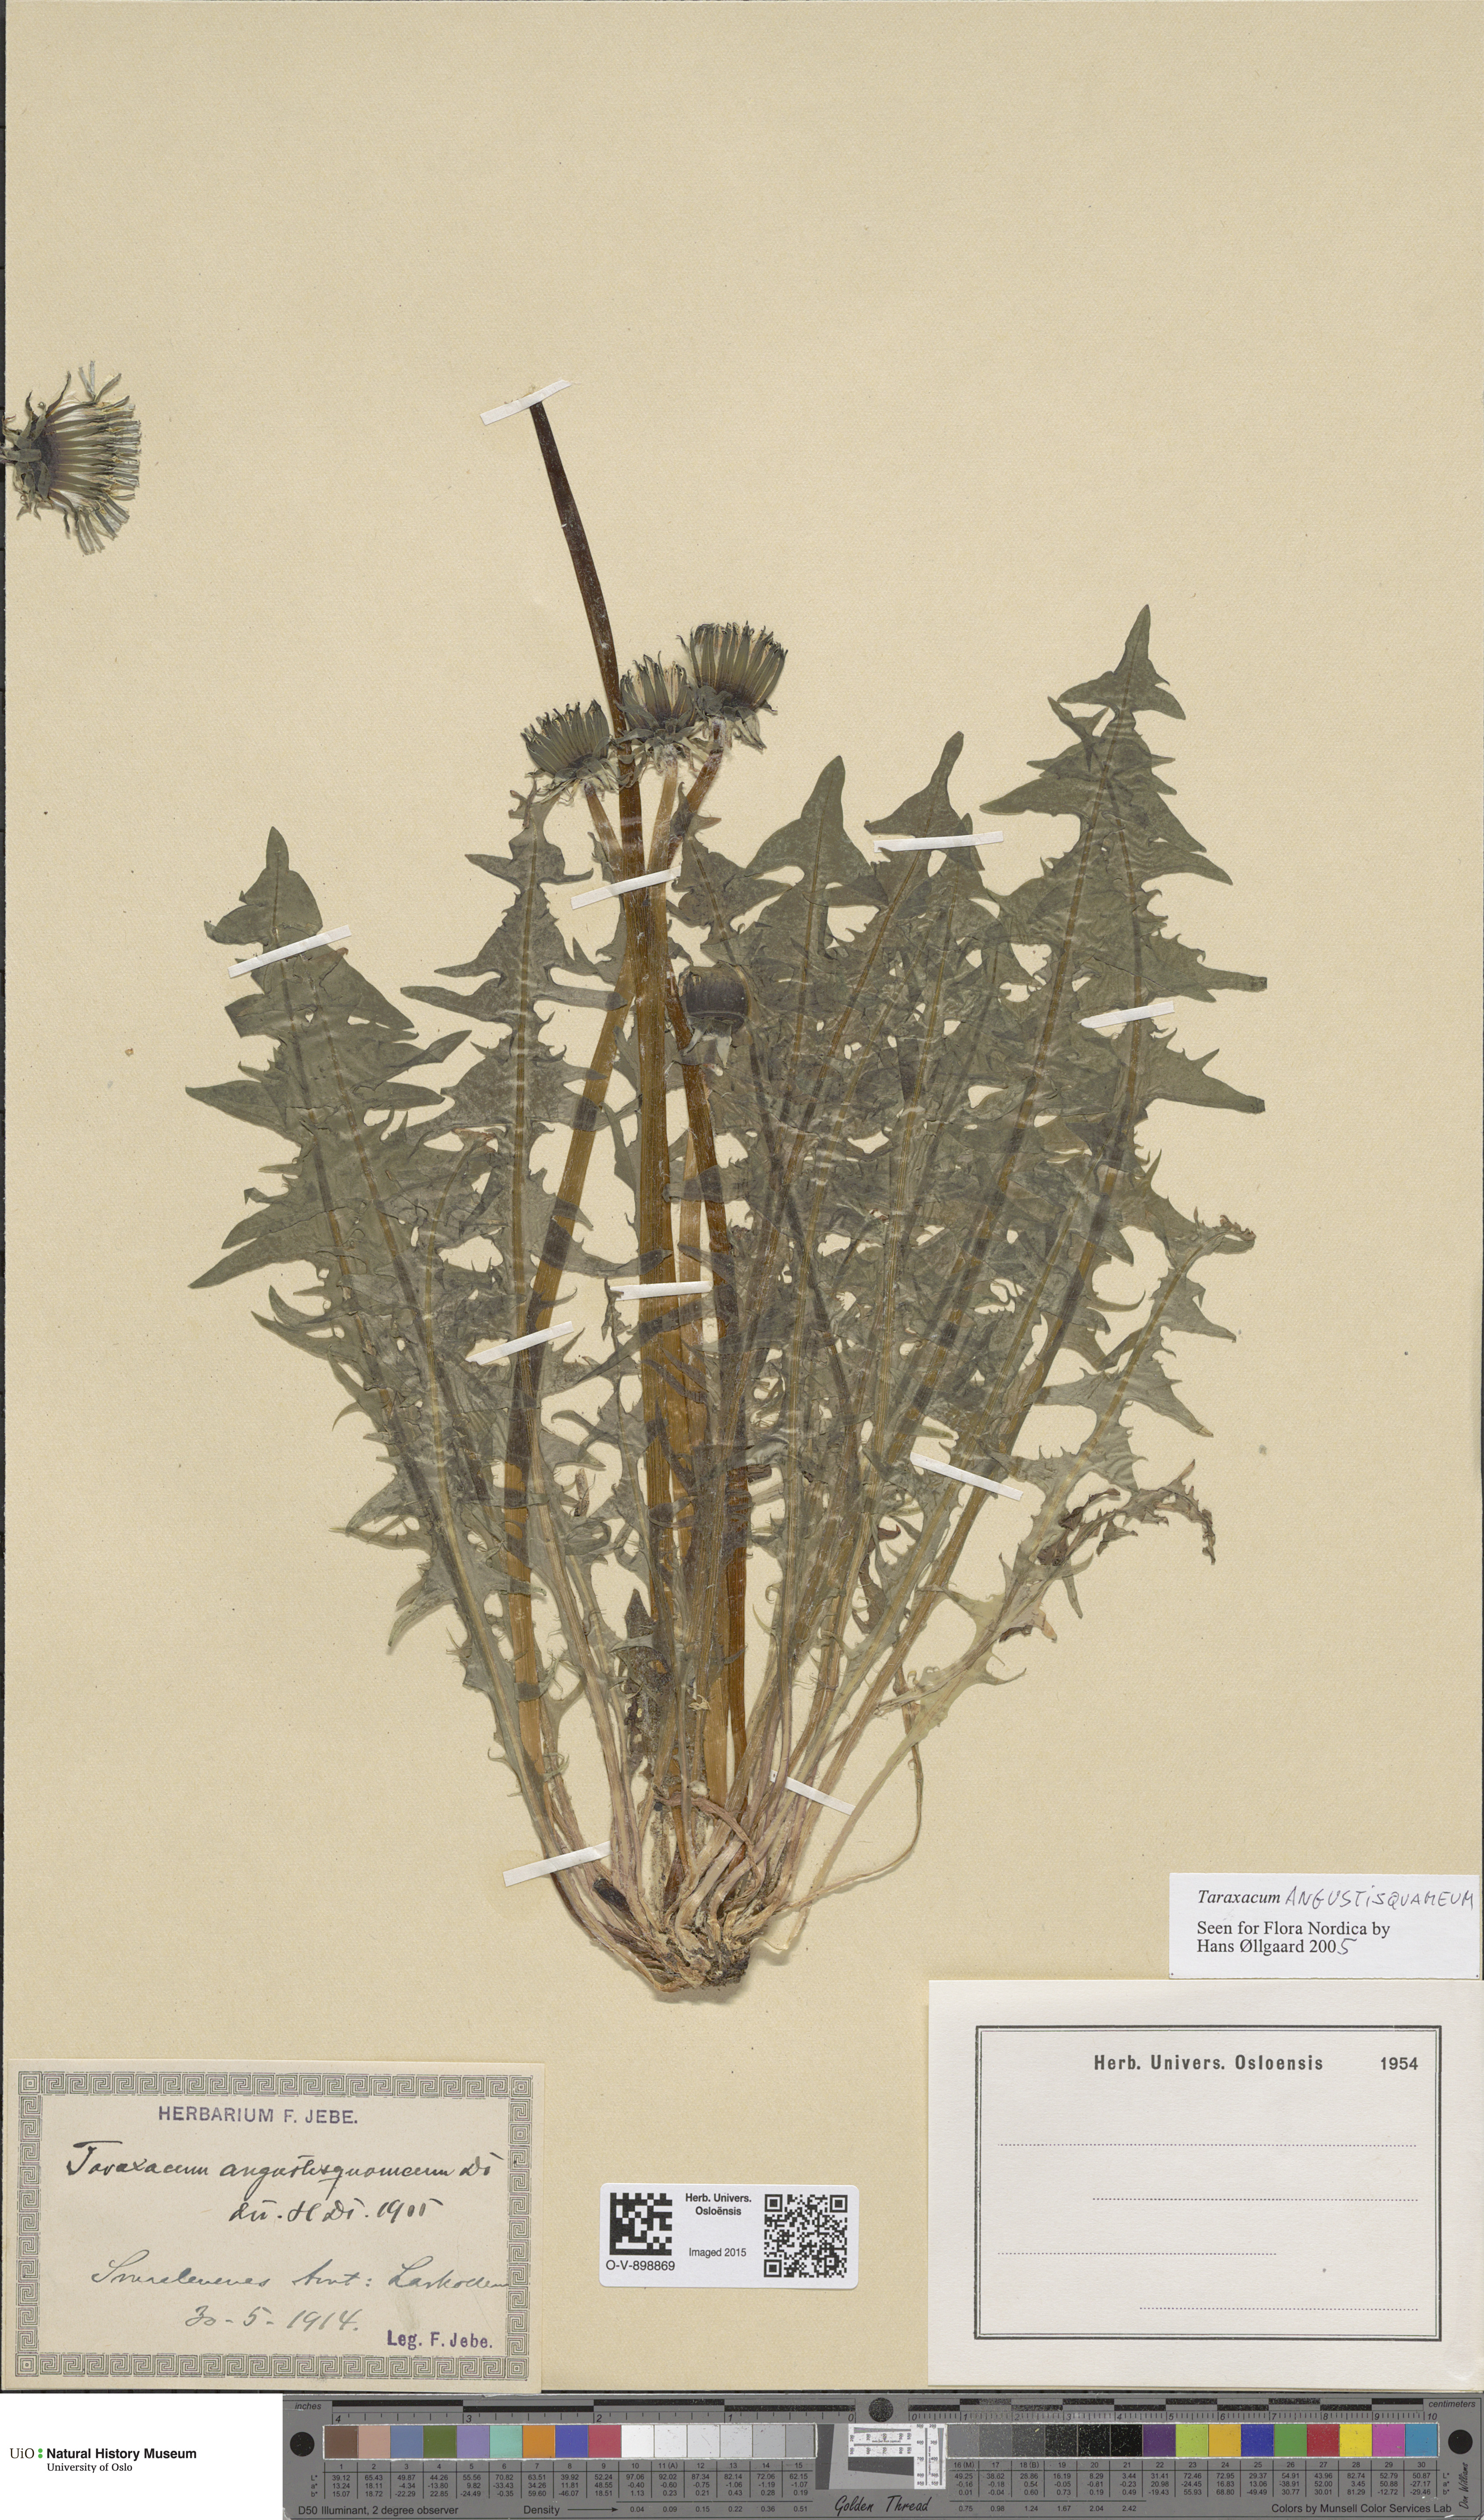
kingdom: Plantae
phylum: Tracheophyta
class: Magnoliopsida
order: Asterales
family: Asteraceae
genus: Taraxacum
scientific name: Taraxacum angustisquameum
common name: Multilobed dandelion
